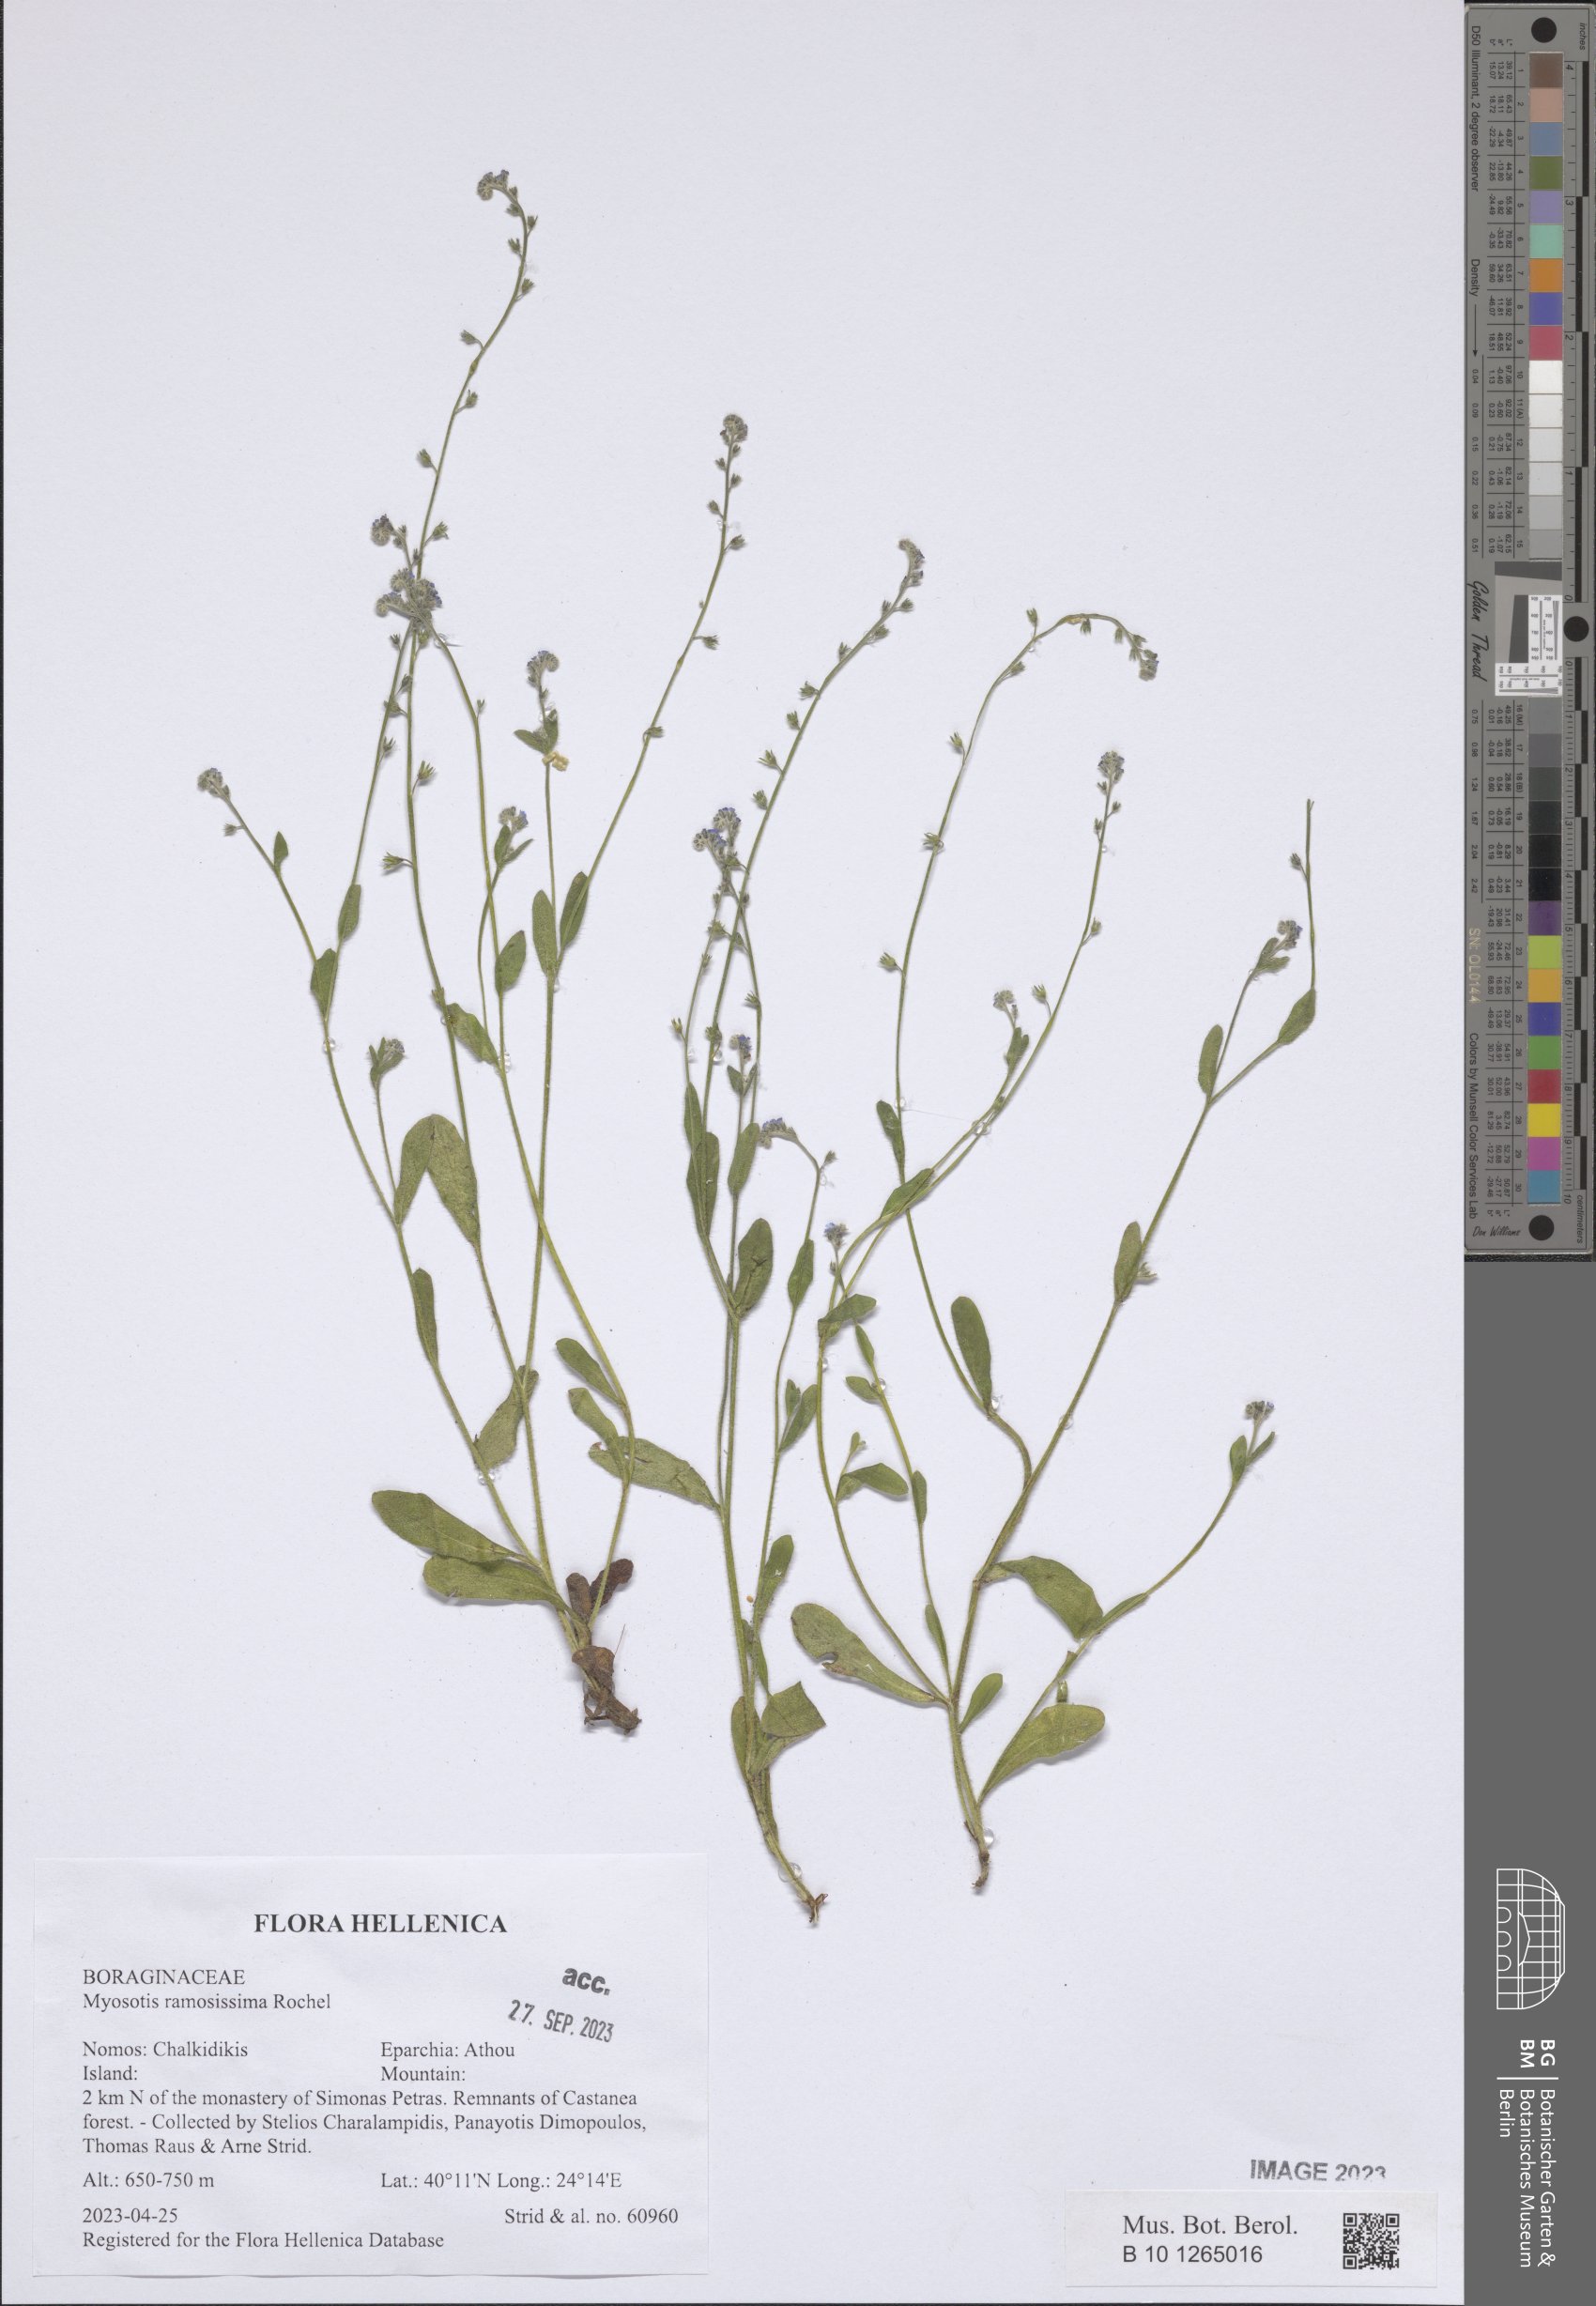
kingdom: Plantae
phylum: Tracheophyta
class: Magnoliopsida
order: Boraginales
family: Boraginaceae
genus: Myosotis
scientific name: Myosotis ramosissima
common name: Early forget-me-not
